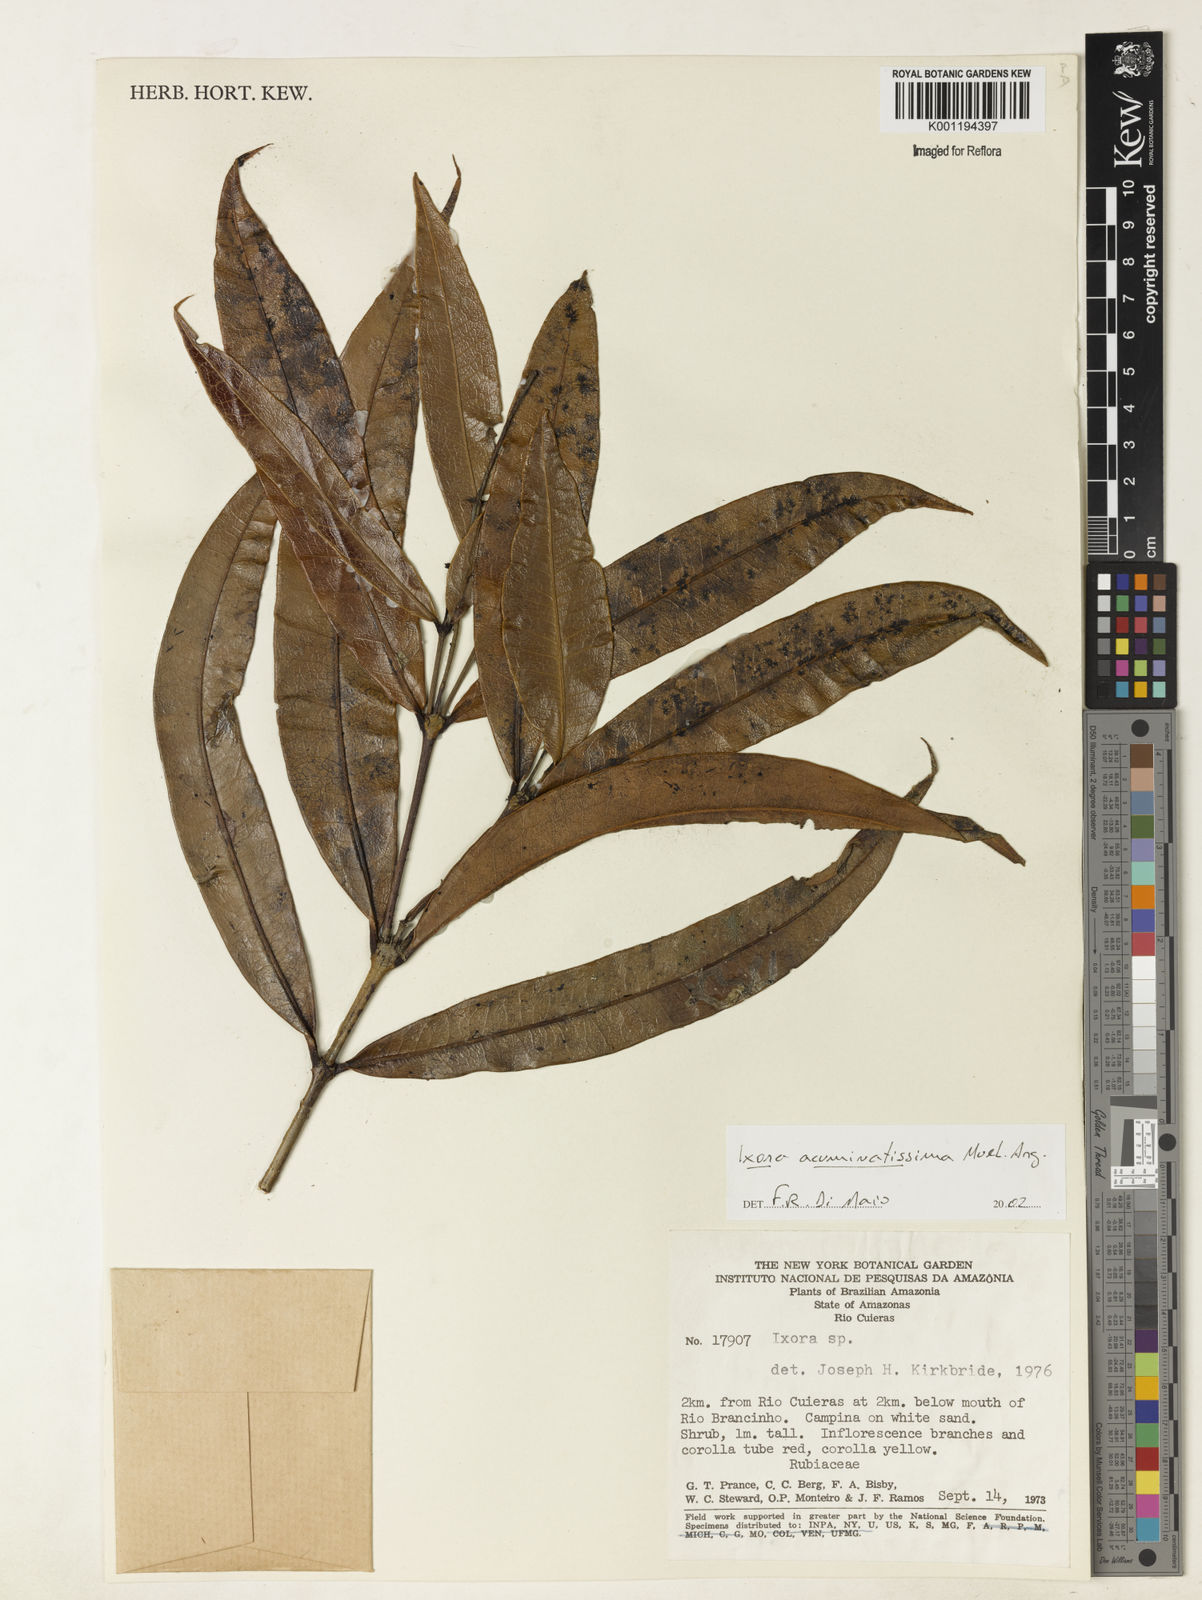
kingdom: Plantae
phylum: Tracheophyta
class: Magnoliopsida
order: Gentianales
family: Rubiaceae
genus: Ixora
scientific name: Ixora
